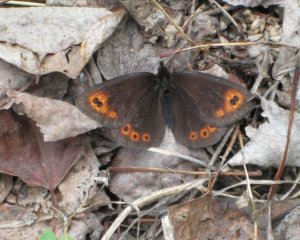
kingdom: Animalia
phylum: Arthropoda
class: Insecta
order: Lepidoptera
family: Nymphalidae
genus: Erebia
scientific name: Erebia epipsodea
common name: Common Alpine
